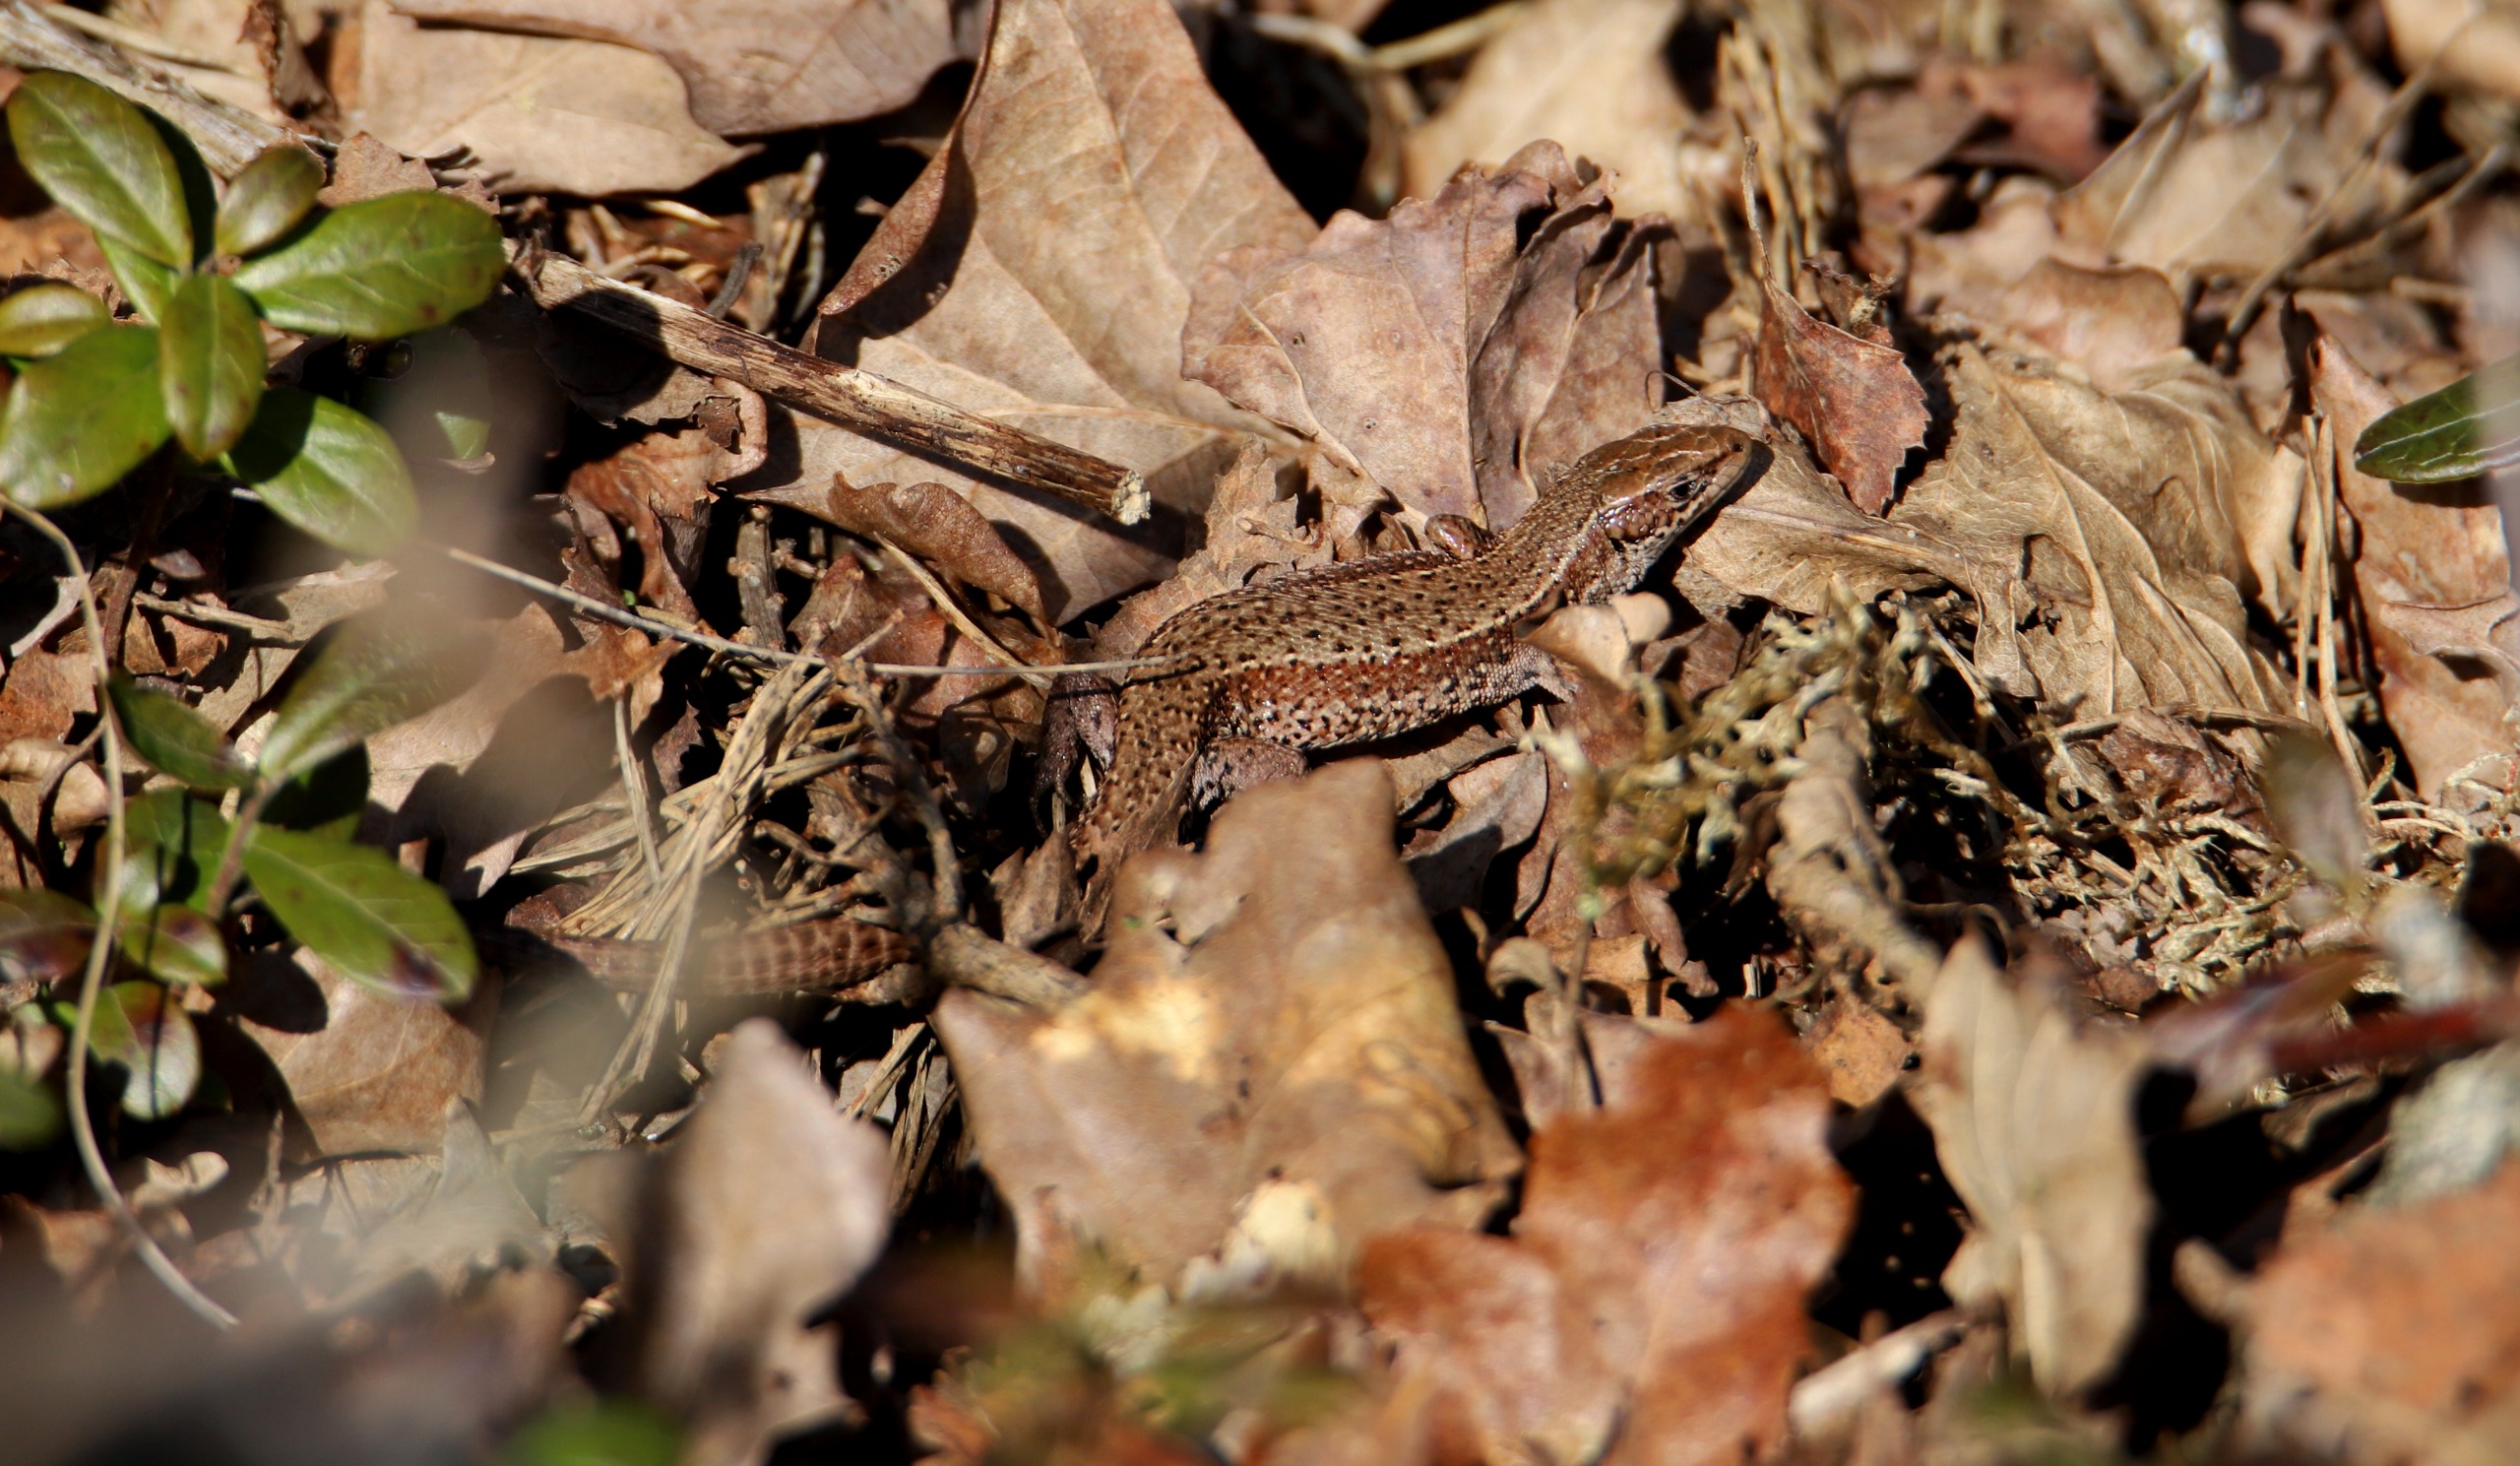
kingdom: Animalia
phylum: Chordata
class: Squamata
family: Lacertidae
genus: Zootoca
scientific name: Zootoca vivipara
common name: Skovfirben
